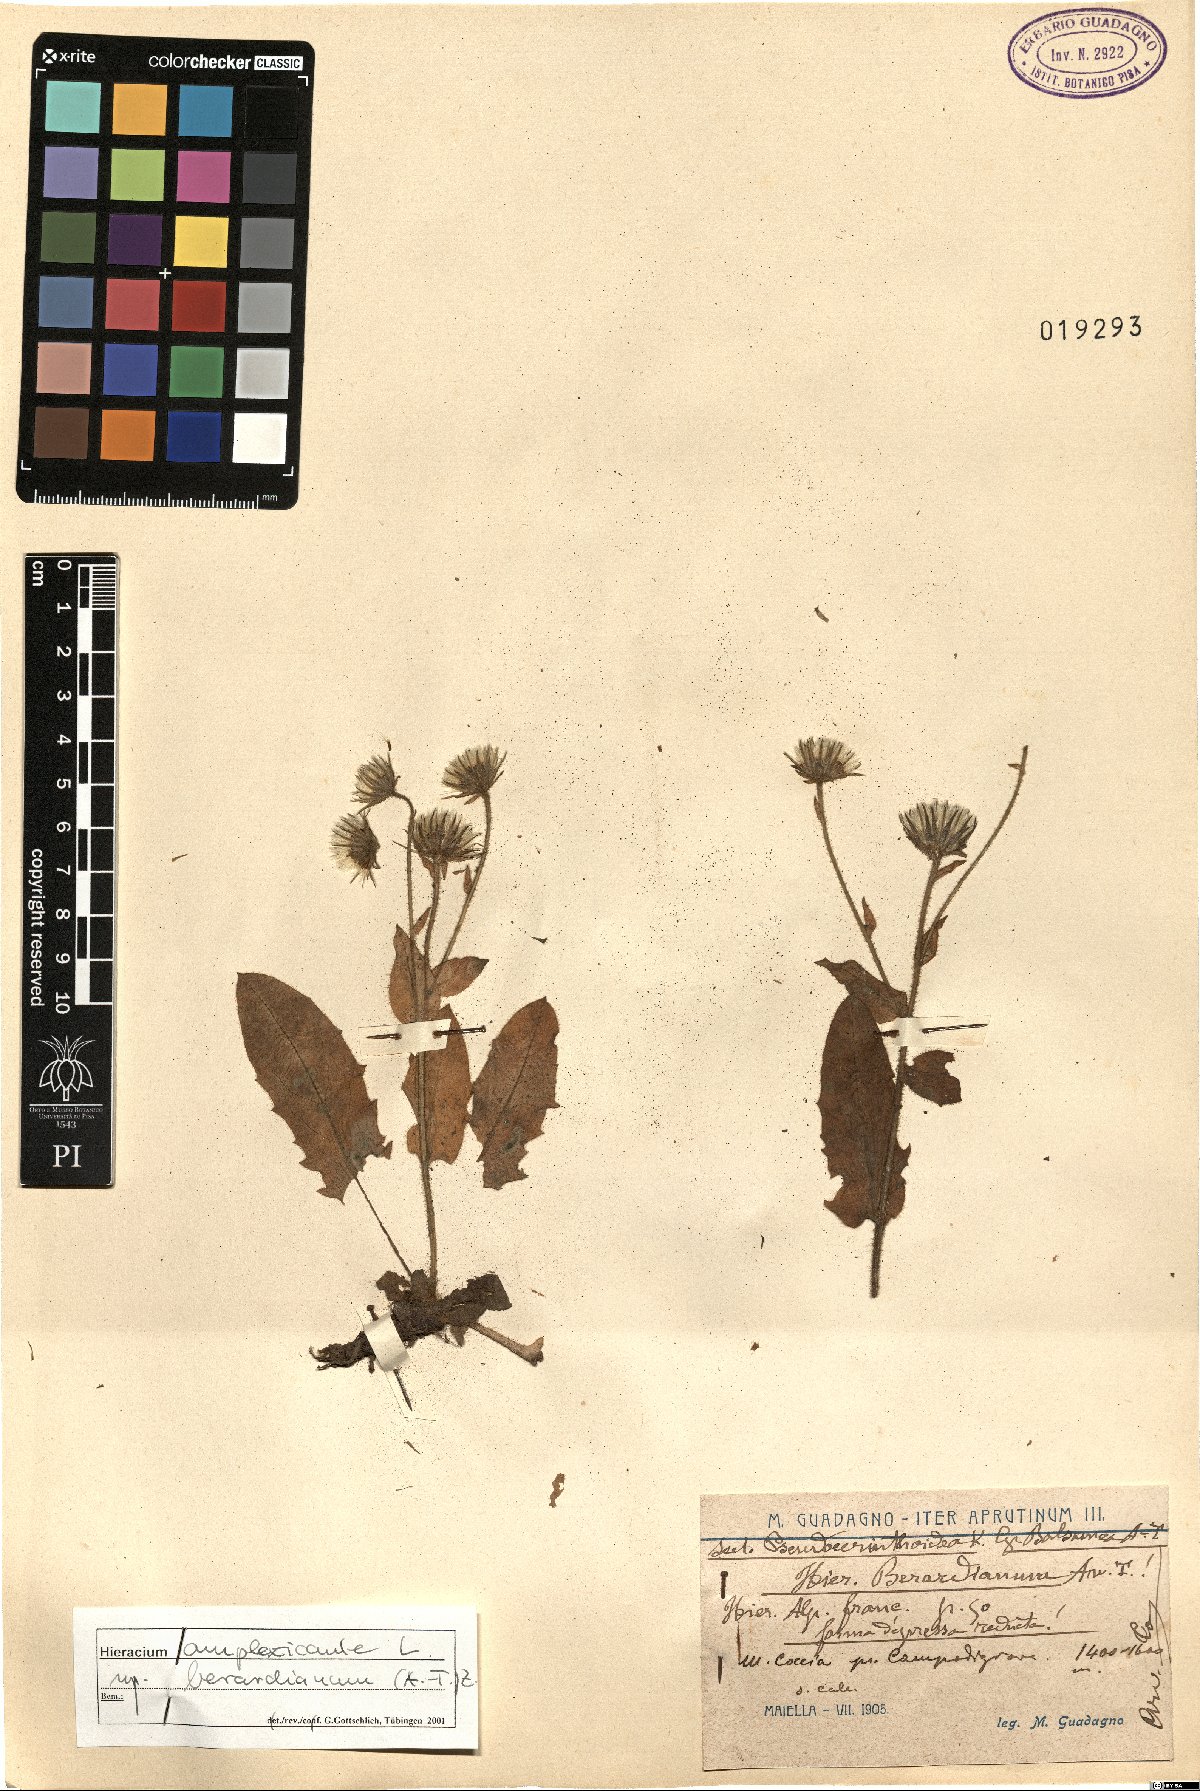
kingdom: Plantae
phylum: Tracheophyta
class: Magnoliopsida
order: Asterales
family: Asteraceae
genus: Hieracium
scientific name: Hieracium amplexicaule
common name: Sticky hawkweed
